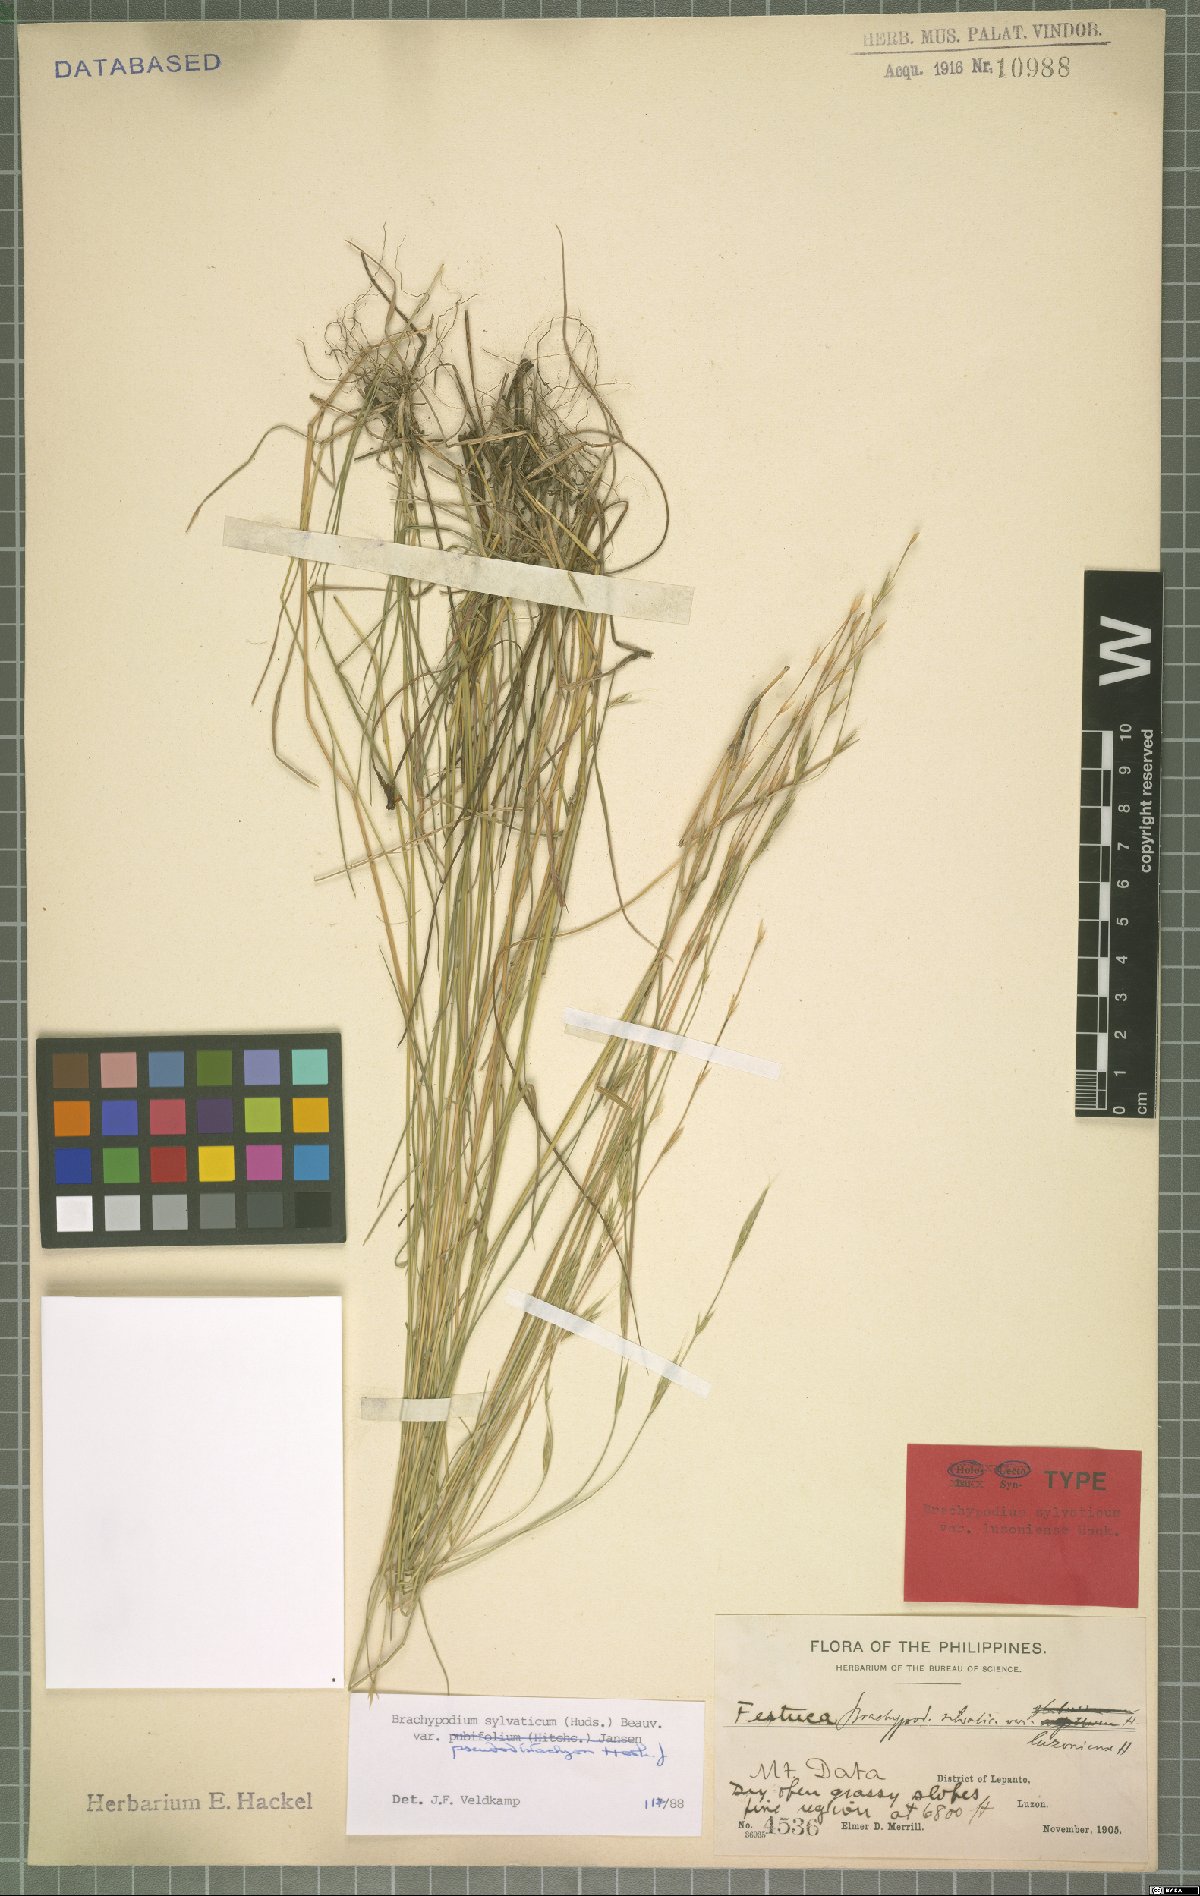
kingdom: Plantae
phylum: Tracheophyta
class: Liliopsida
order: Poales
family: Poaceae
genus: Brachypodium
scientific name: Brachypodium sylvaticum
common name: False-brome
